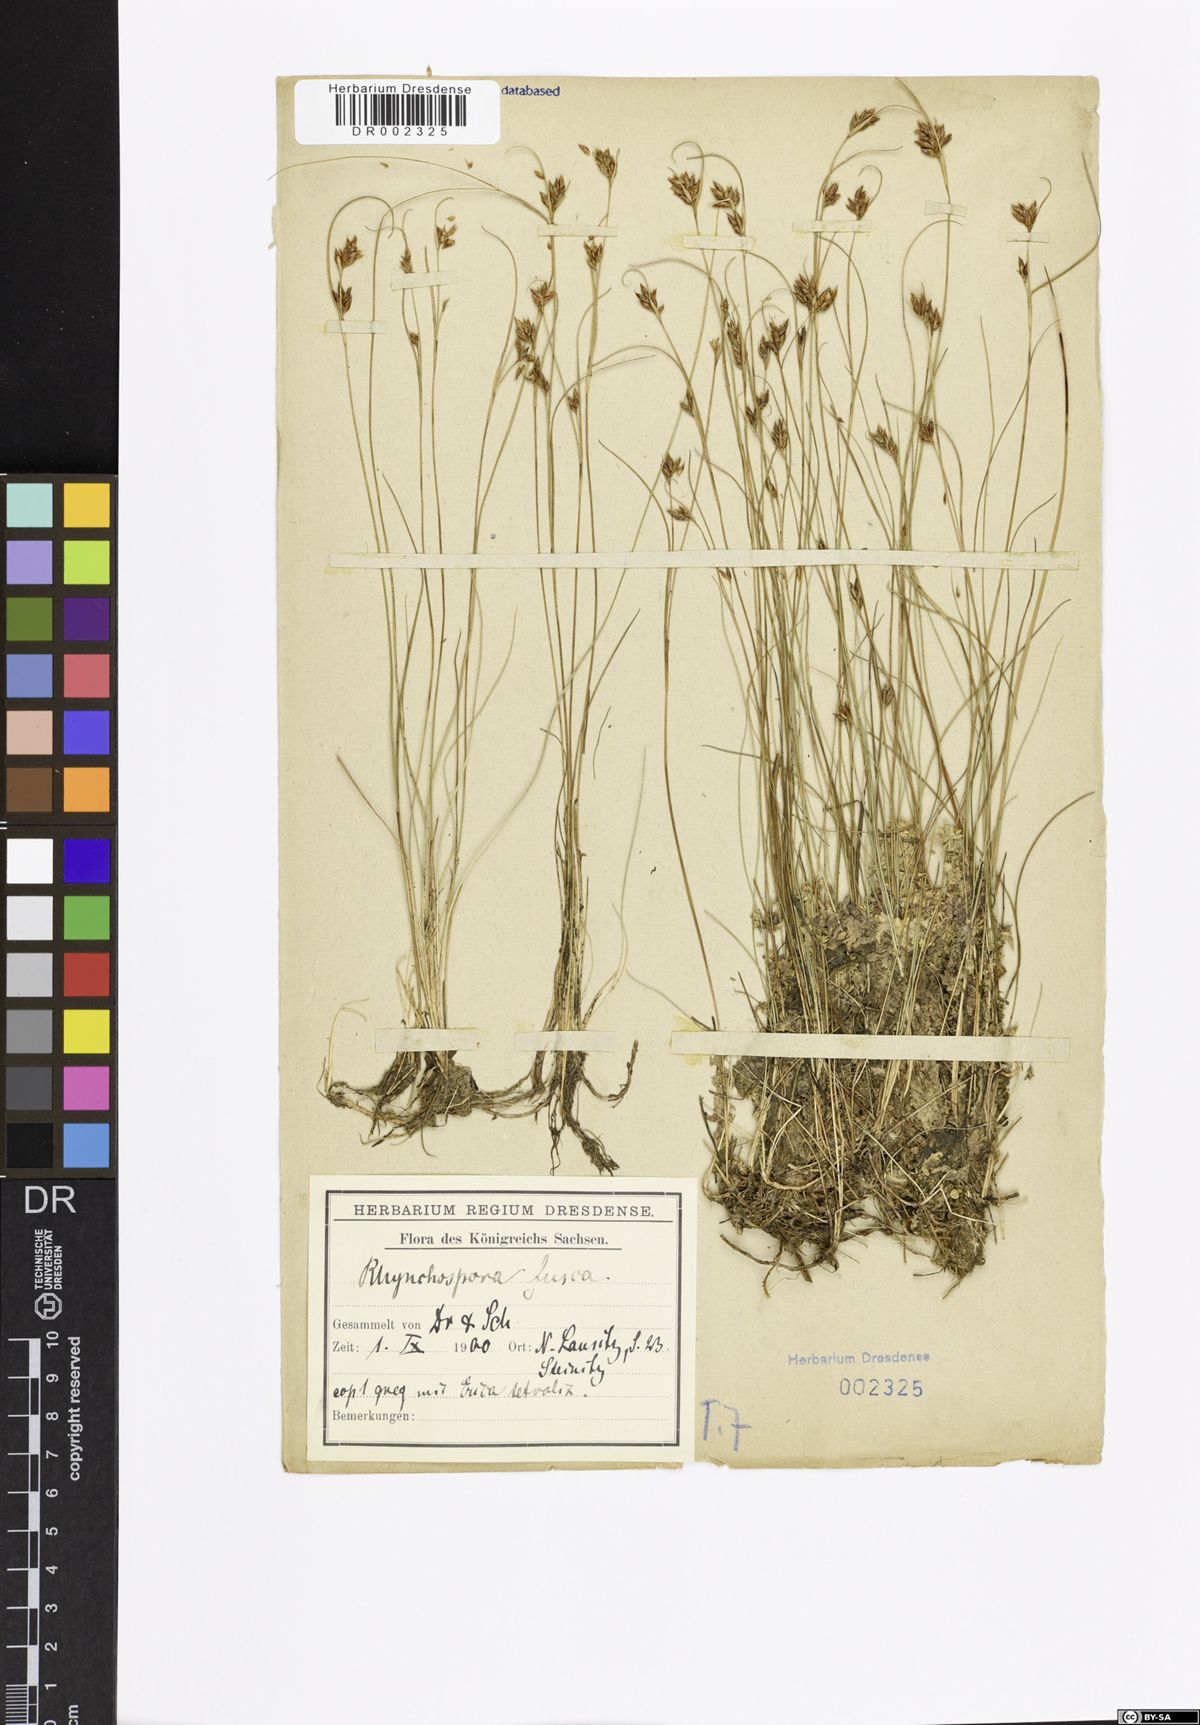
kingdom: Plantae
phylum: Tracheophyta
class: Liliopsida
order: Poales
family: Cyperaceae
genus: Rhynchospora
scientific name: Rhynchospora fusca
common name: Brown beak-sedge
